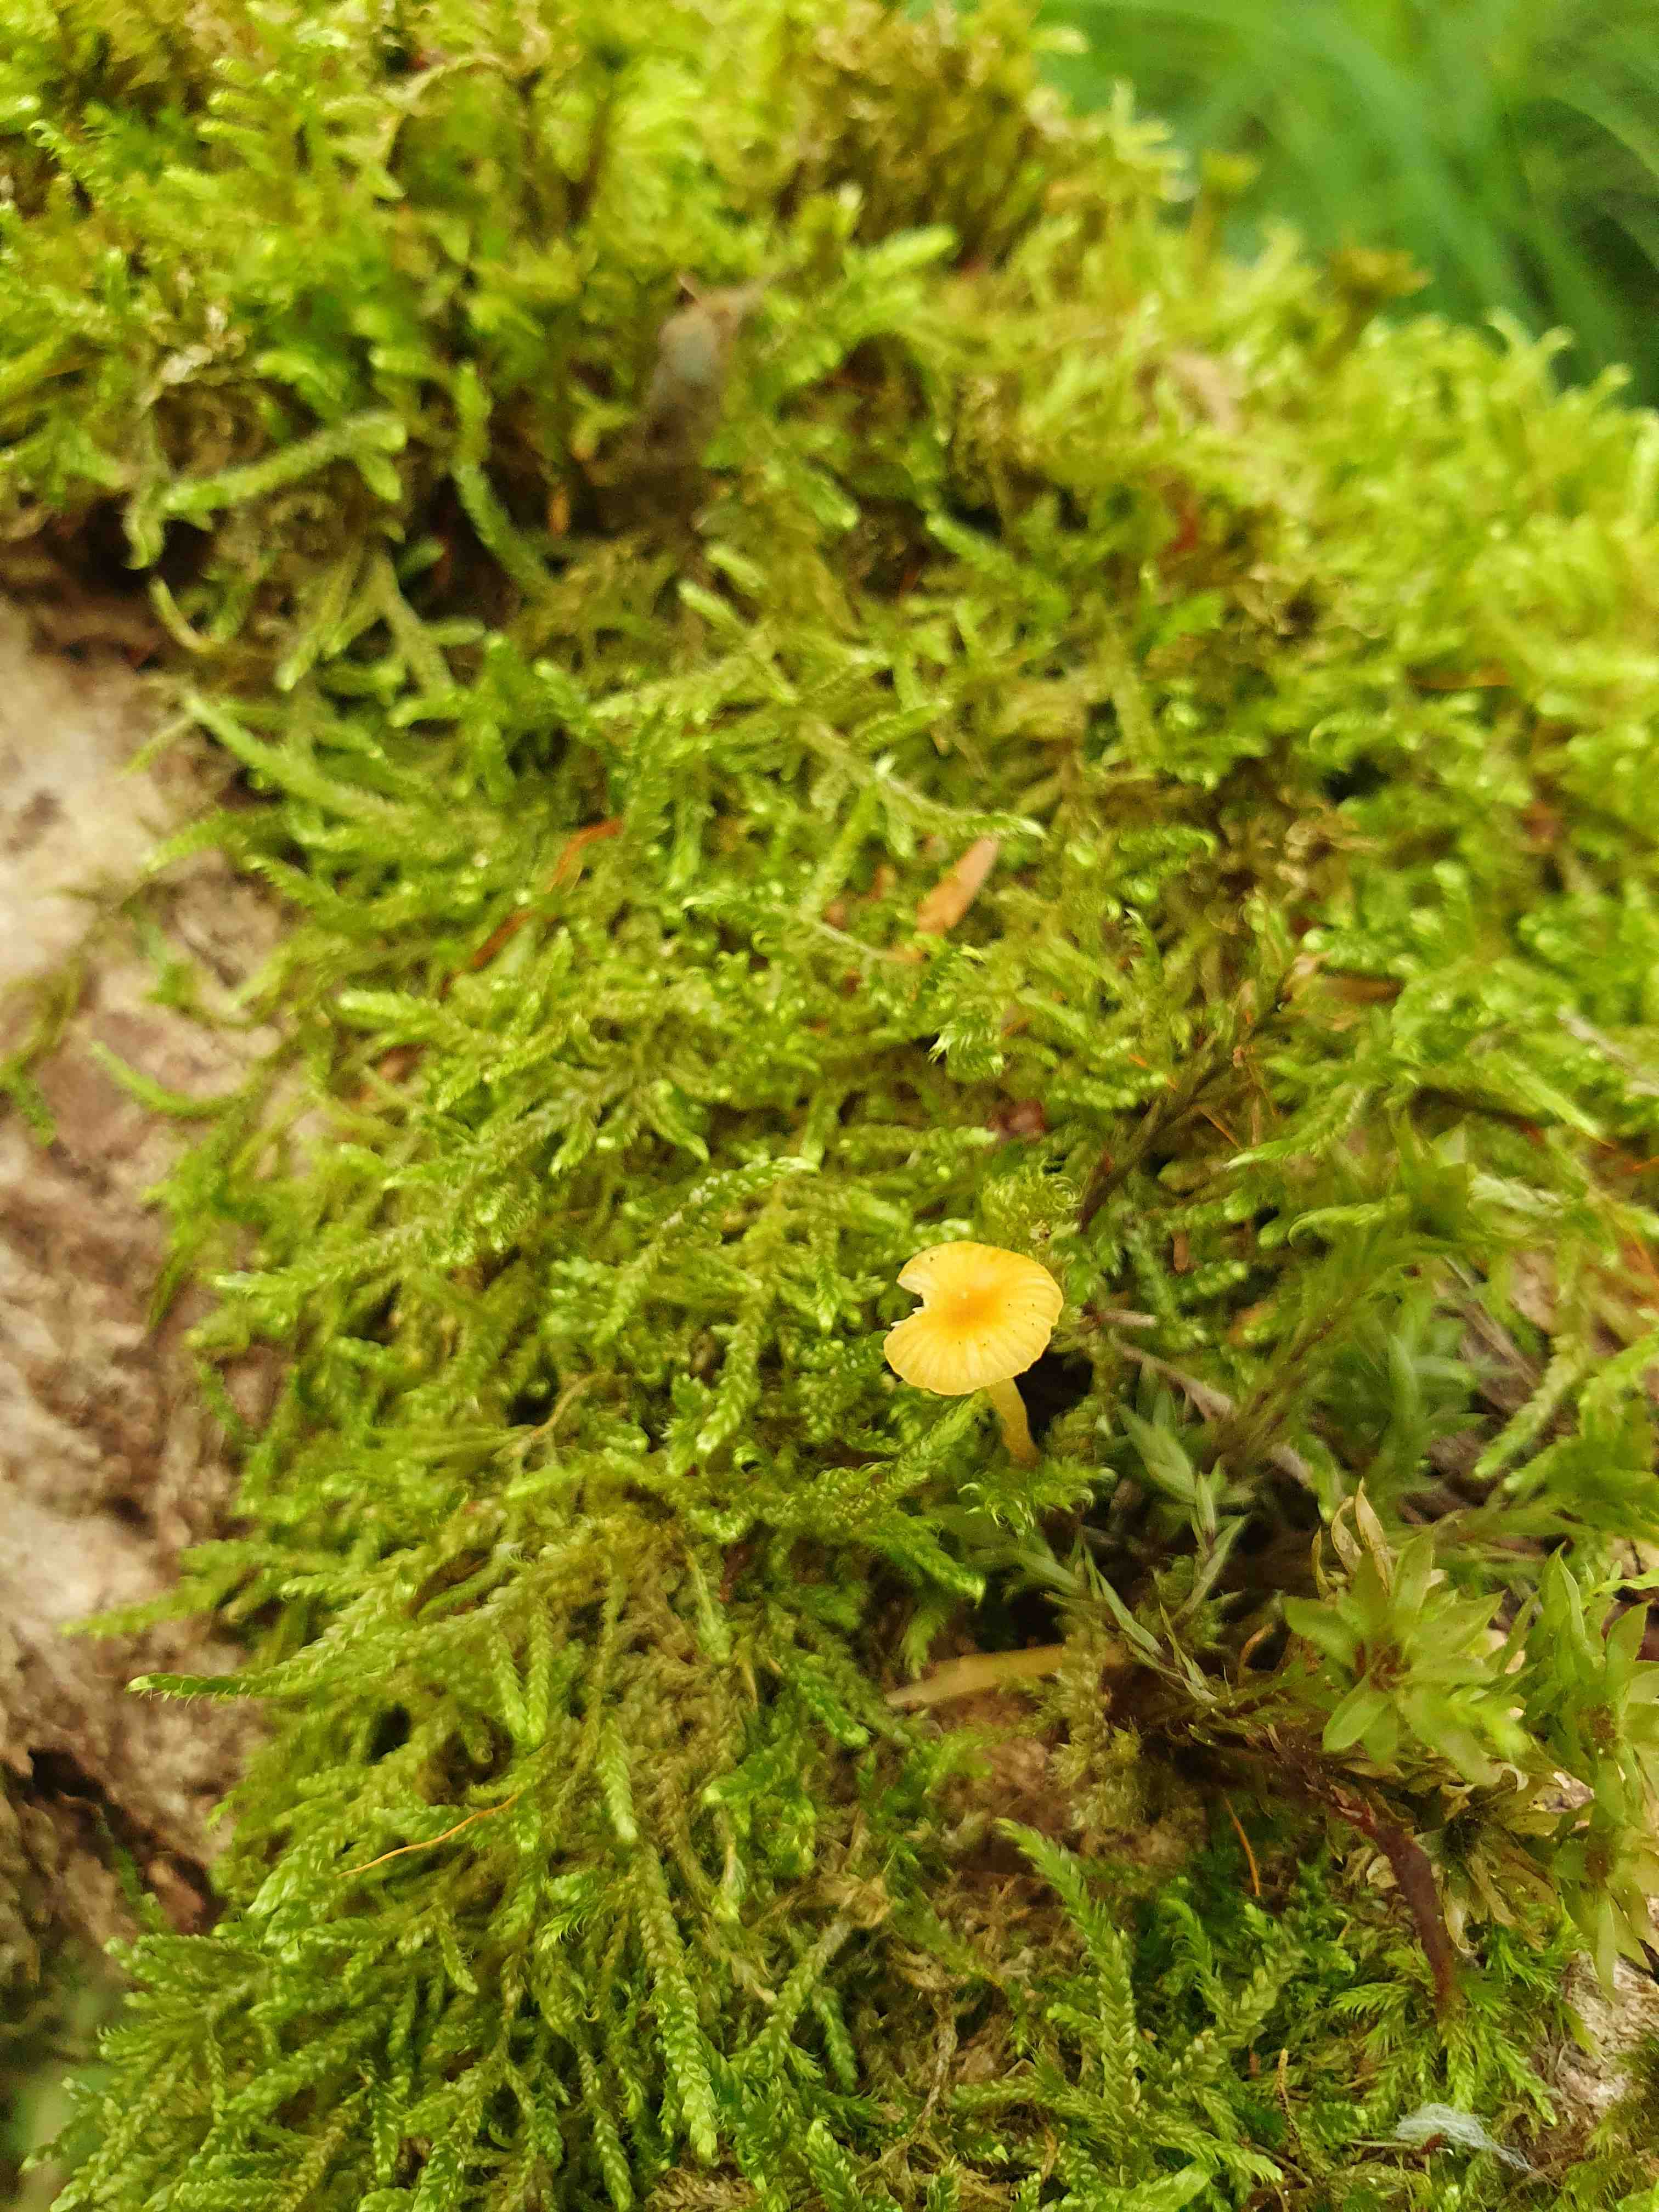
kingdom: Fungi
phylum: Basidiomycota
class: Agaricomycetes
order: Hymenochaetales
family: Rickenellaceae
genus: Rickenella
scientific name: Rickenella fibula
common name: orange mosnavlehat
